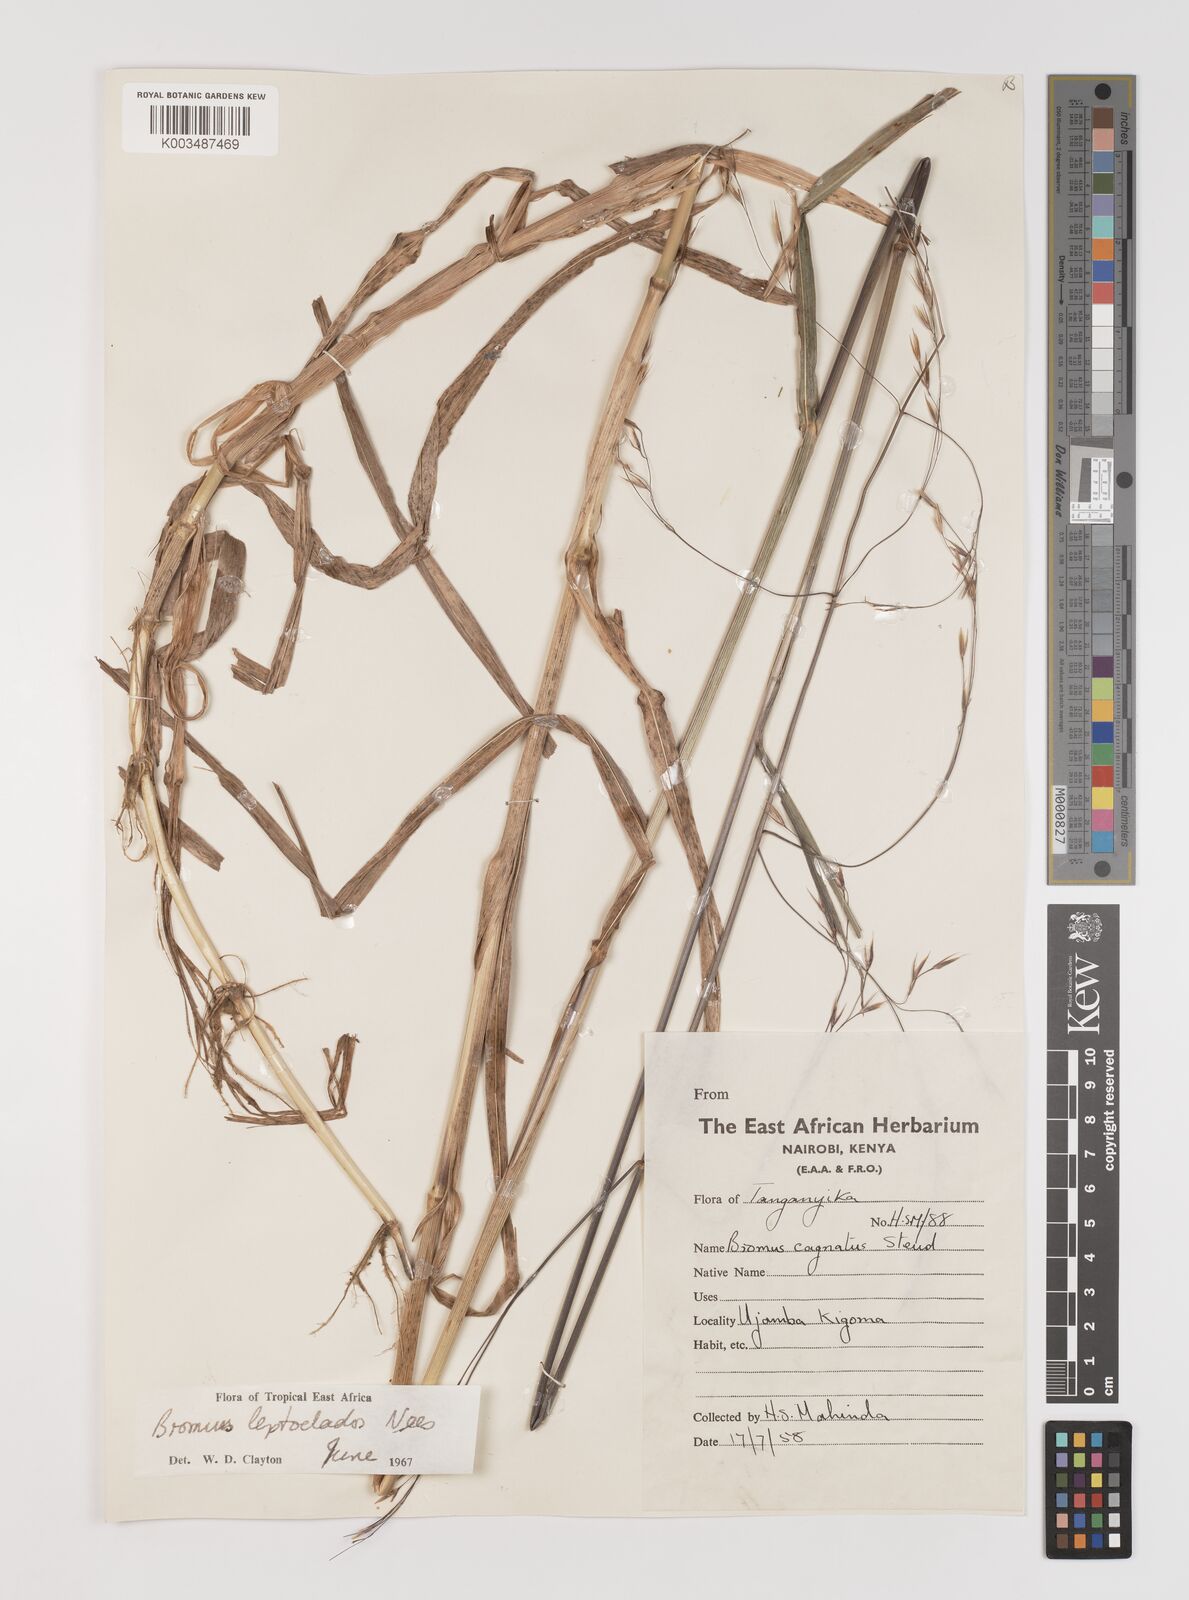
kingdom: Plantae
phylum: Tracheophyta
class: Liliopsida
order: Poales
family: Poaceae
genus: Bromus
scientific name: Bromus leptoclados
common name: Mountain bromegrass
